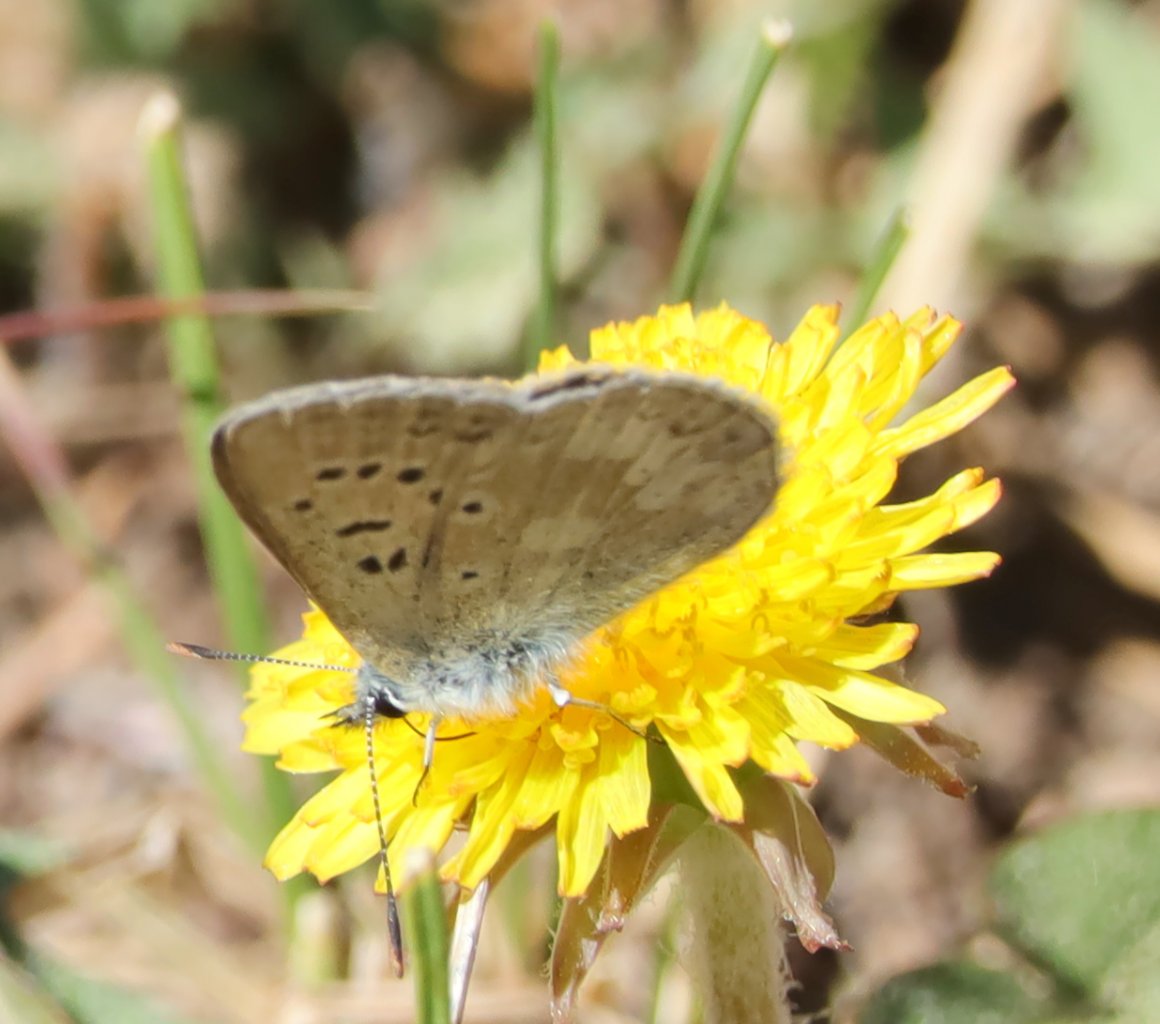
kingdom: Animalia
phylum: Arthropoda
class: Insecta
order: Lepidoptera
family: Lycaenidae
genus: Agriades
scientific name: Agriades glandon
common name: Arctic Blue
